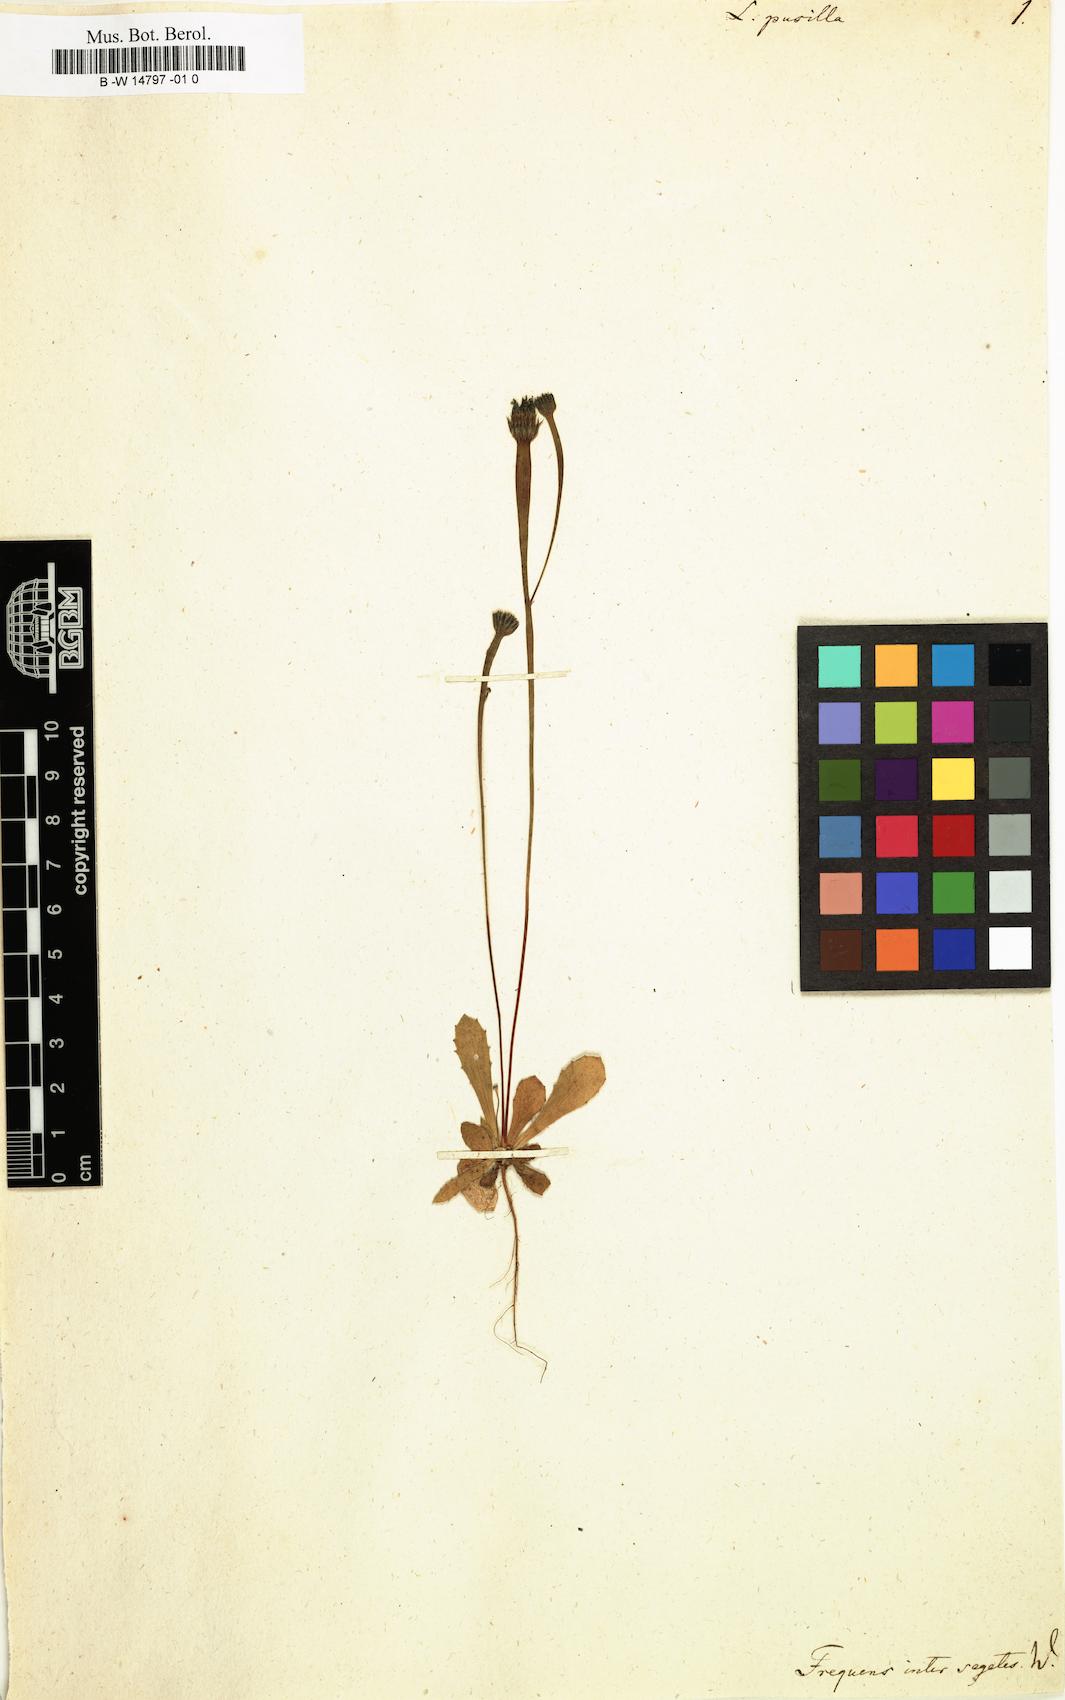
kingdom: Plantae
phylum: Tracheophyta
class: Magnoliopsida
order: Asterales
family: Asteraceae
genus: Arnoseris
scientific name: Arnoseris minima
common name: Lamb's succory
